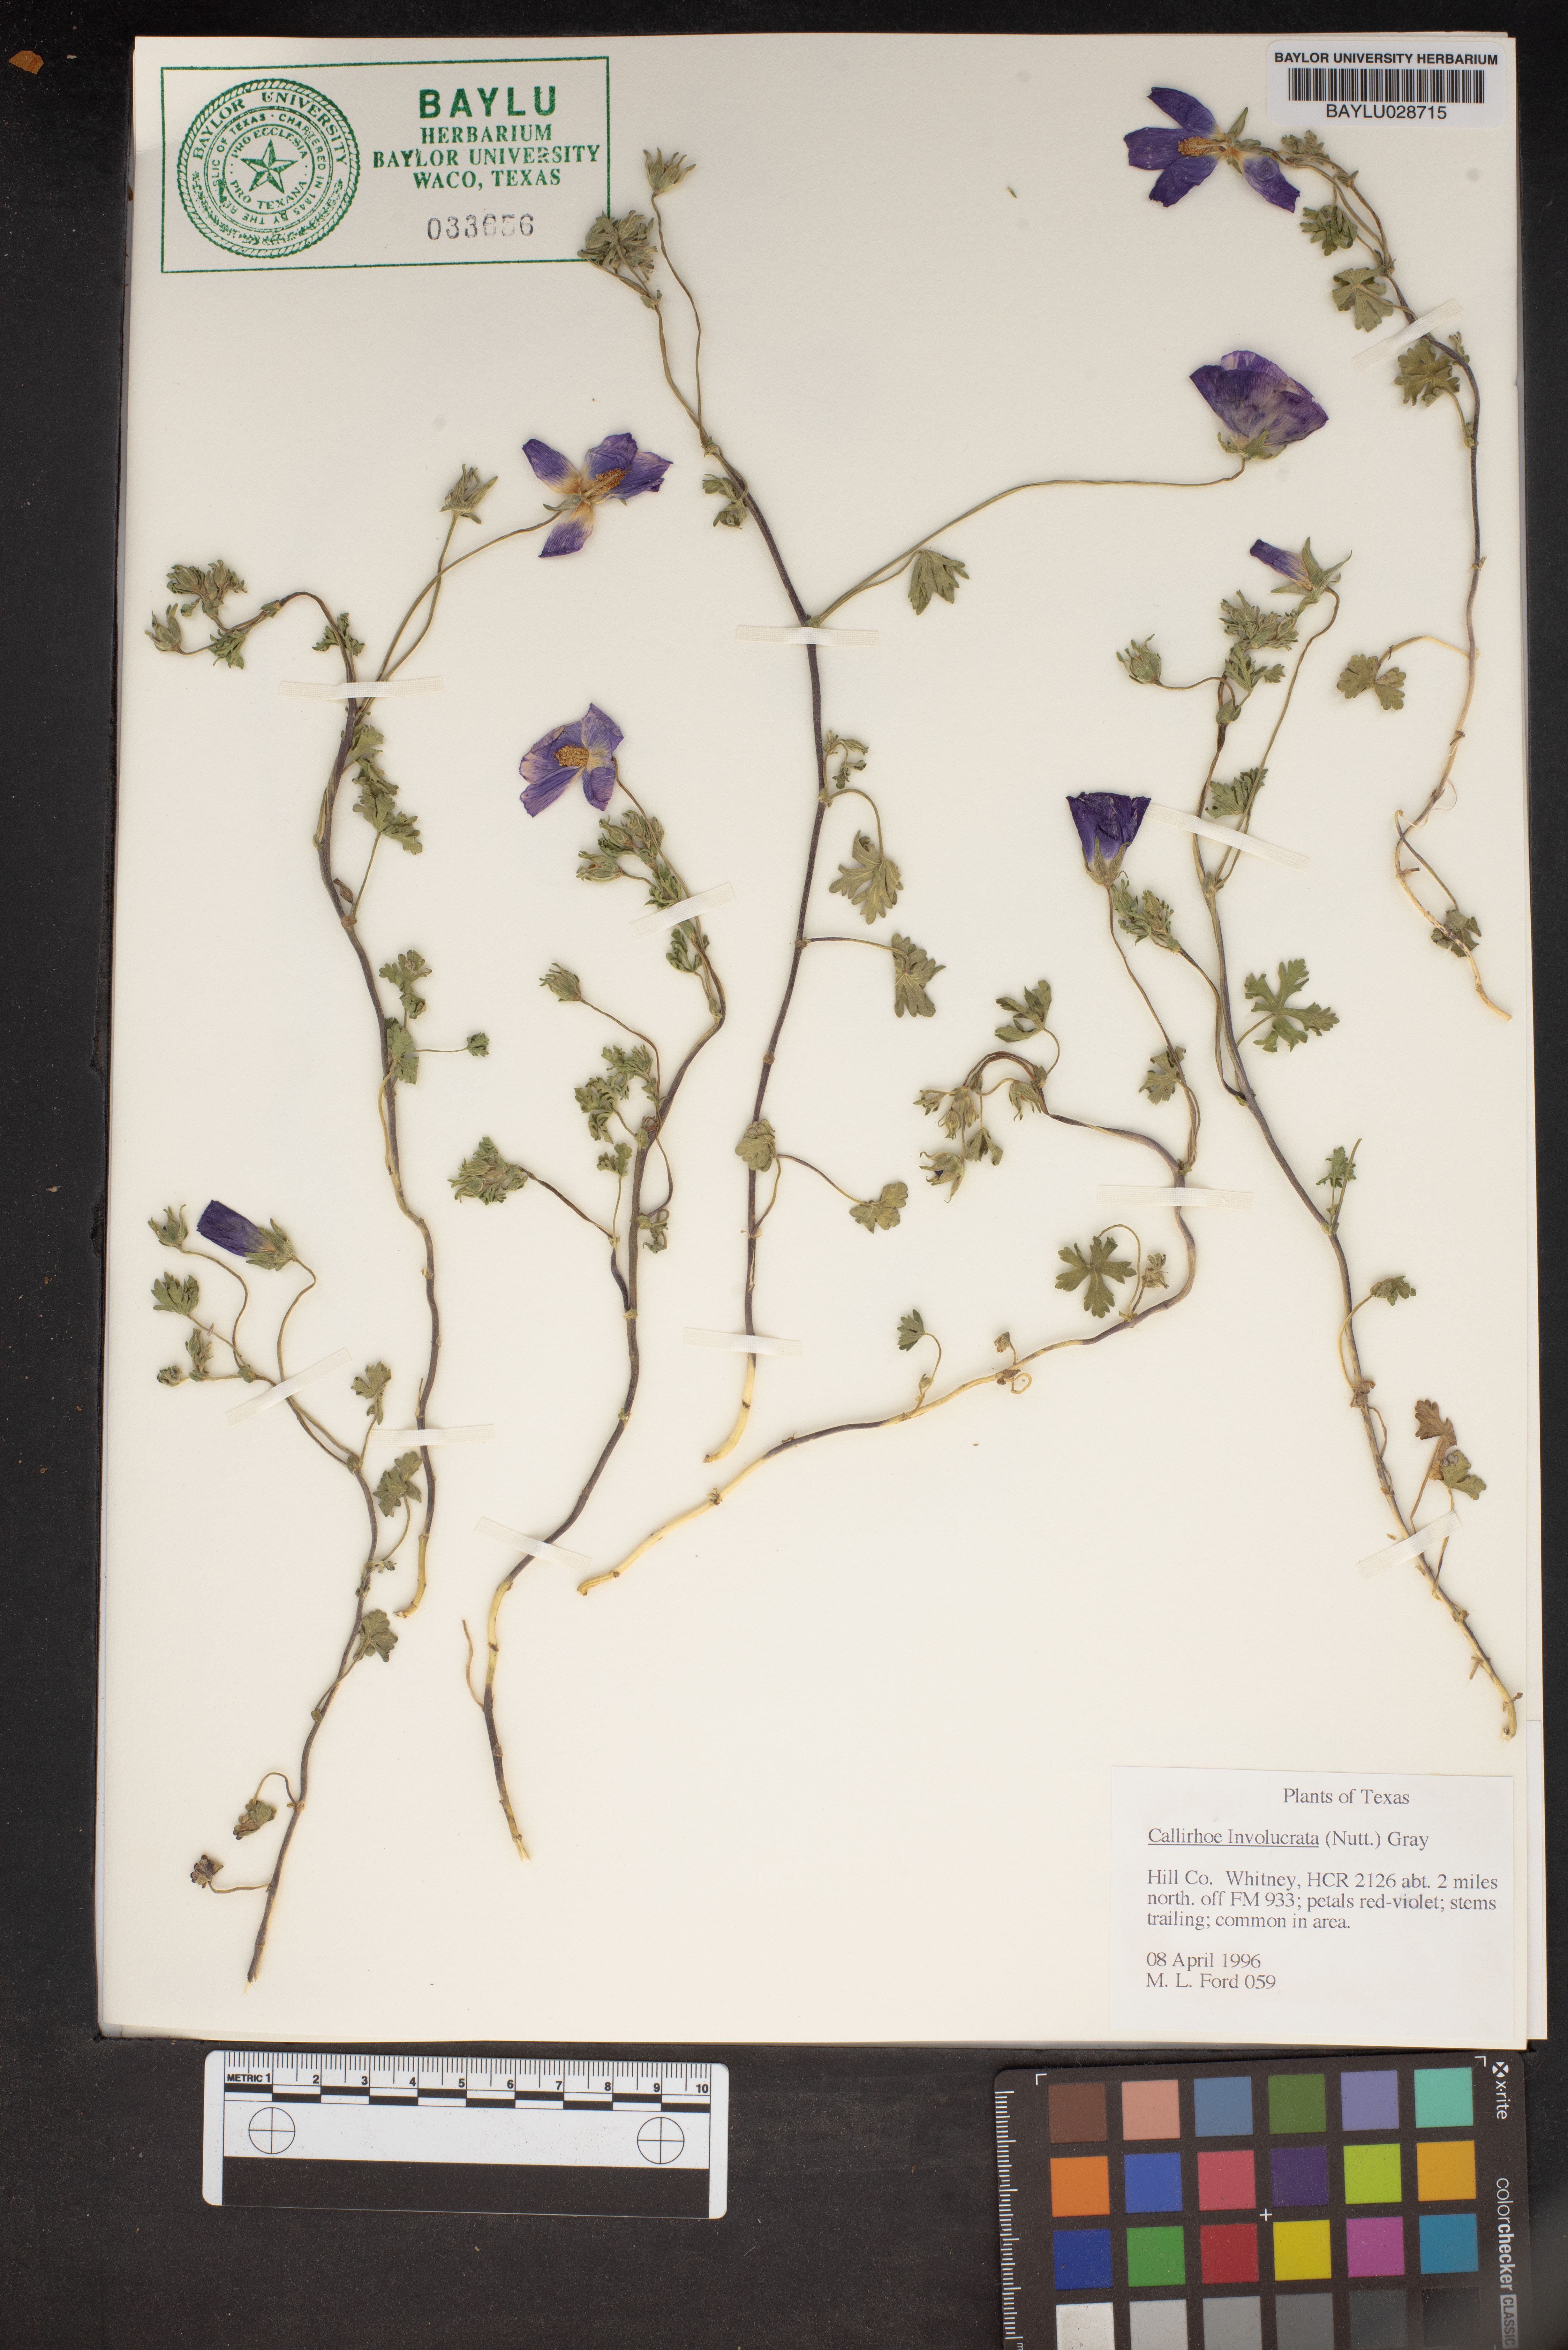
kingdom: Plantae
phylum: Tracheophyta
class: Magnoliopsida
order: Malvales
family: Malvaceae
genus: Callirhoe
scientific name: Callirhoe involucrata
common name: Purple poppy-mallow
